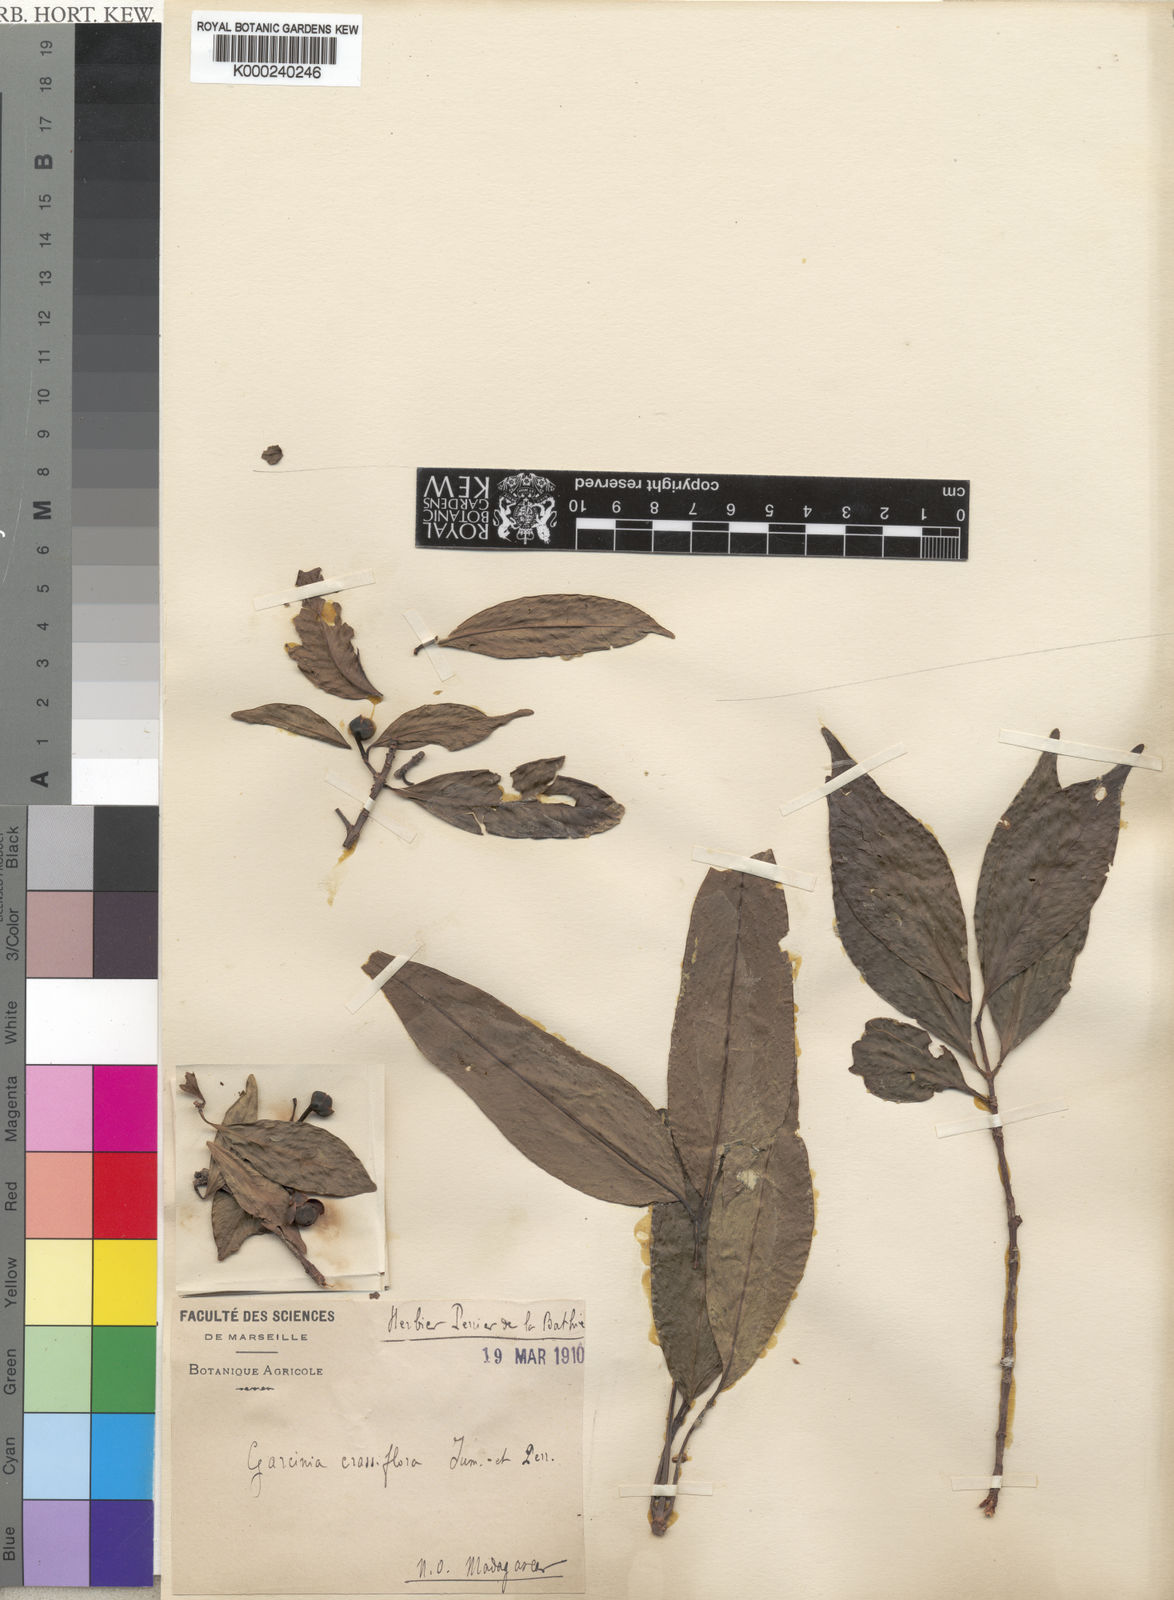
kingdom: Plantae
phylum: Tracheophyta
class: Magnoliopsida
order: Malpighiales
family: Clusiaceae
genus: Garcinia
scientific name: Garcinia crassiflora
